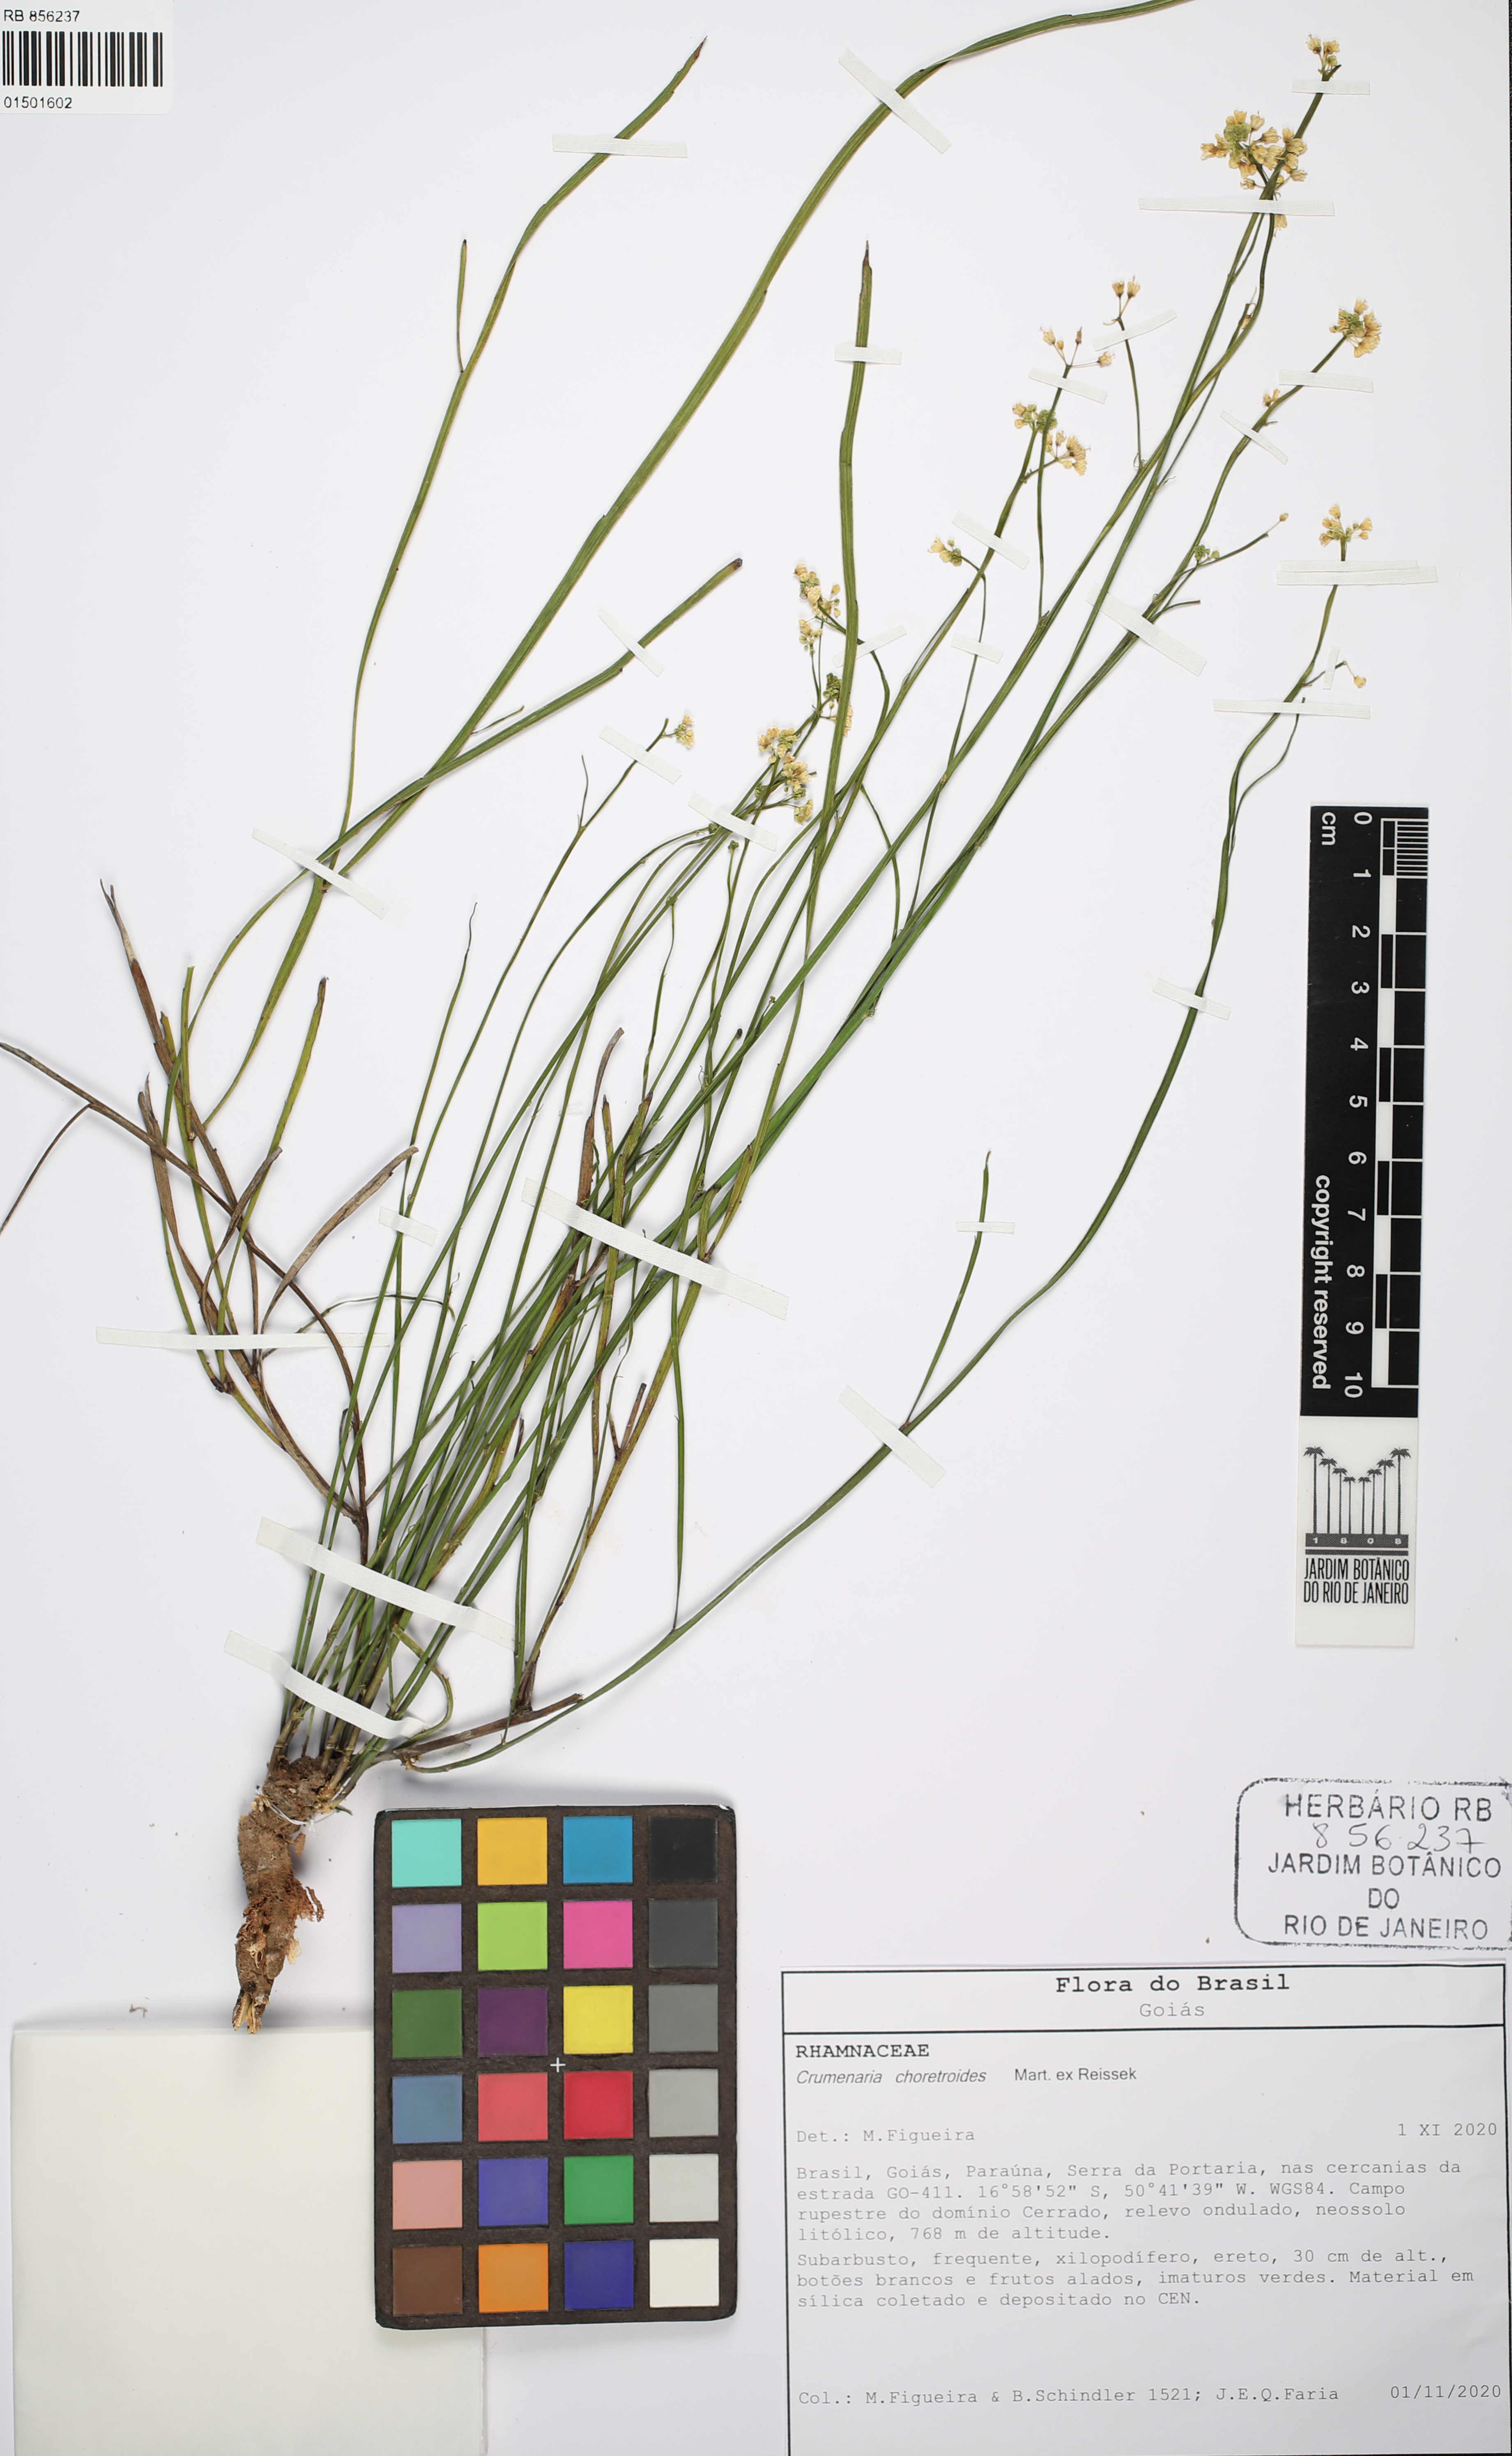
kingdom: Plantae
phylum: Tracheophyta
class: Magnoliopsida
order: Rosales
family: Rhamnaceae
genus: Crumenaria
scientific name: Crumenaria choretroides
